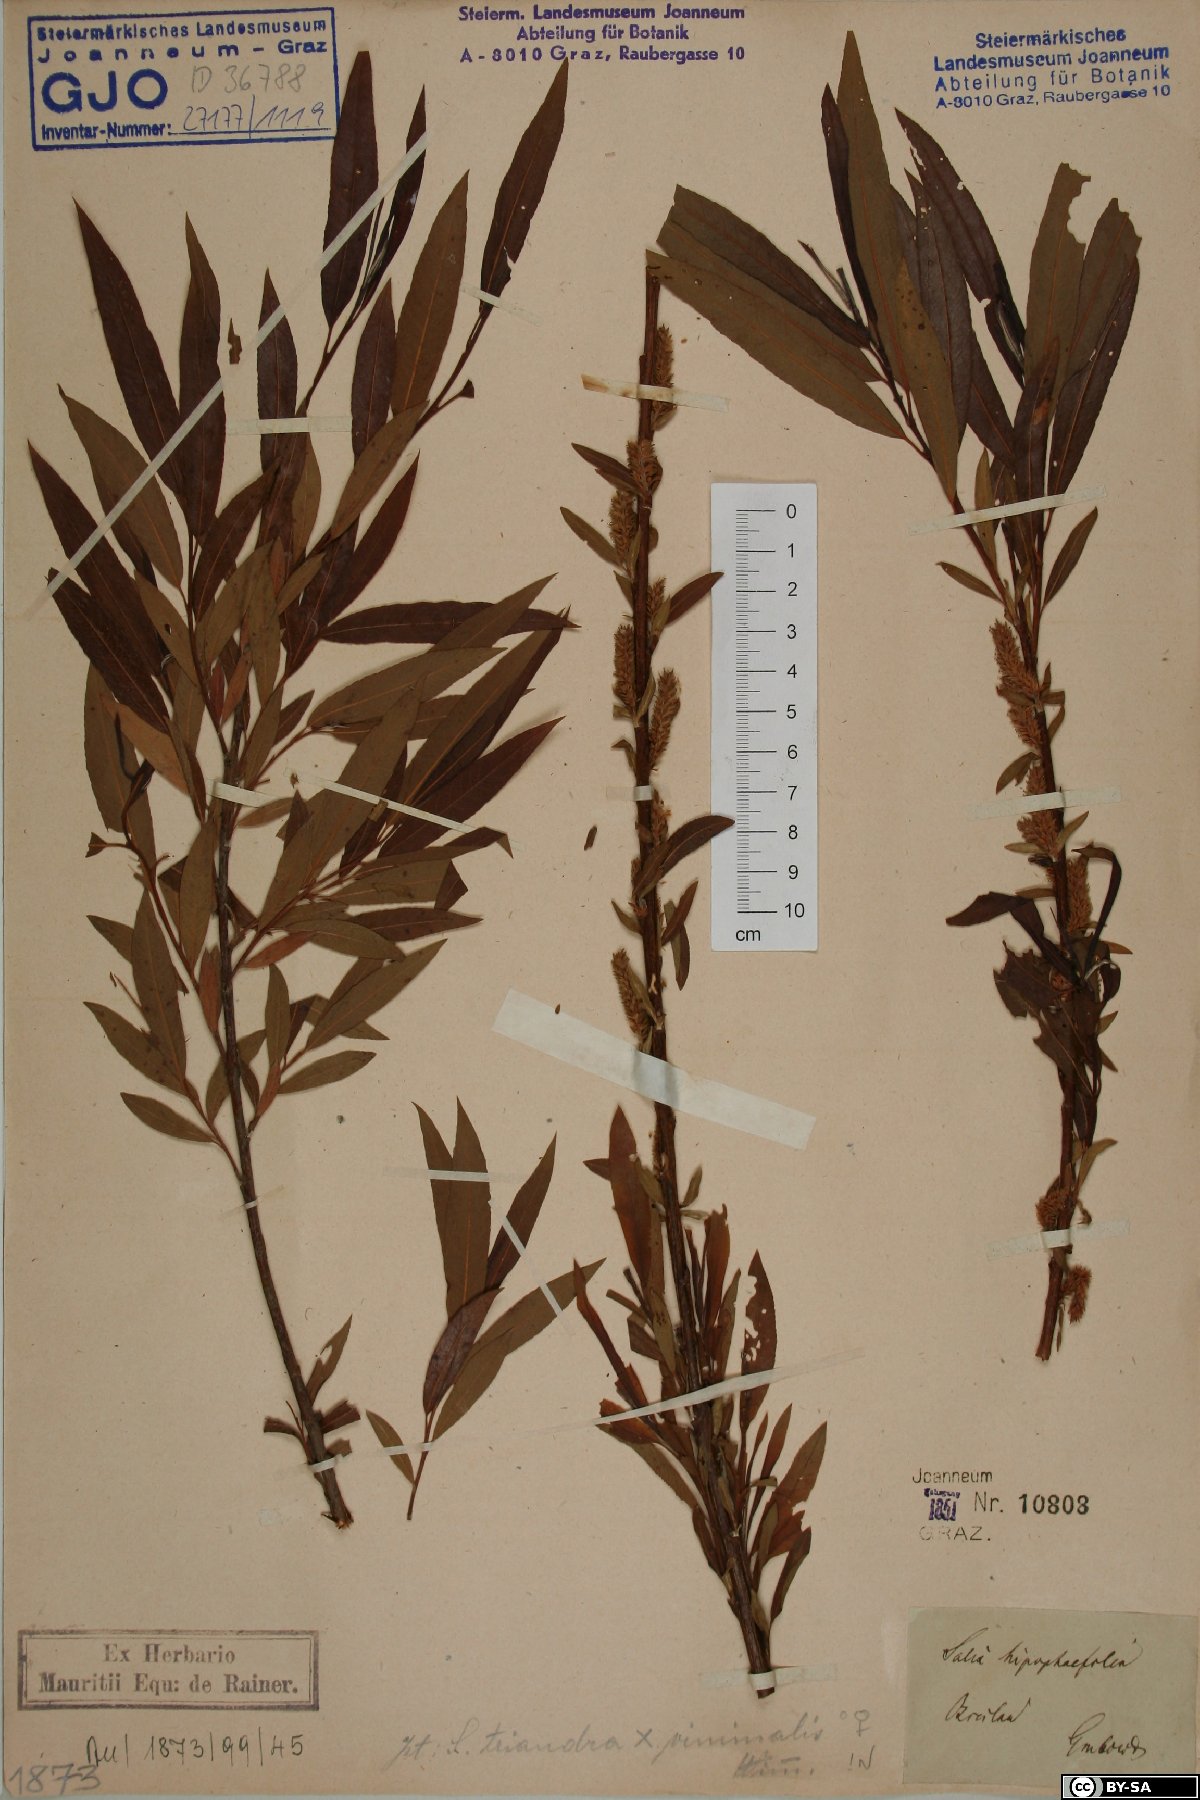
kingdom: Plantae
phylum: Tracheophyta
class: Magnoliopsida
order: Malpighiales
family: Salicaceae
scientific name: Salicaceae
